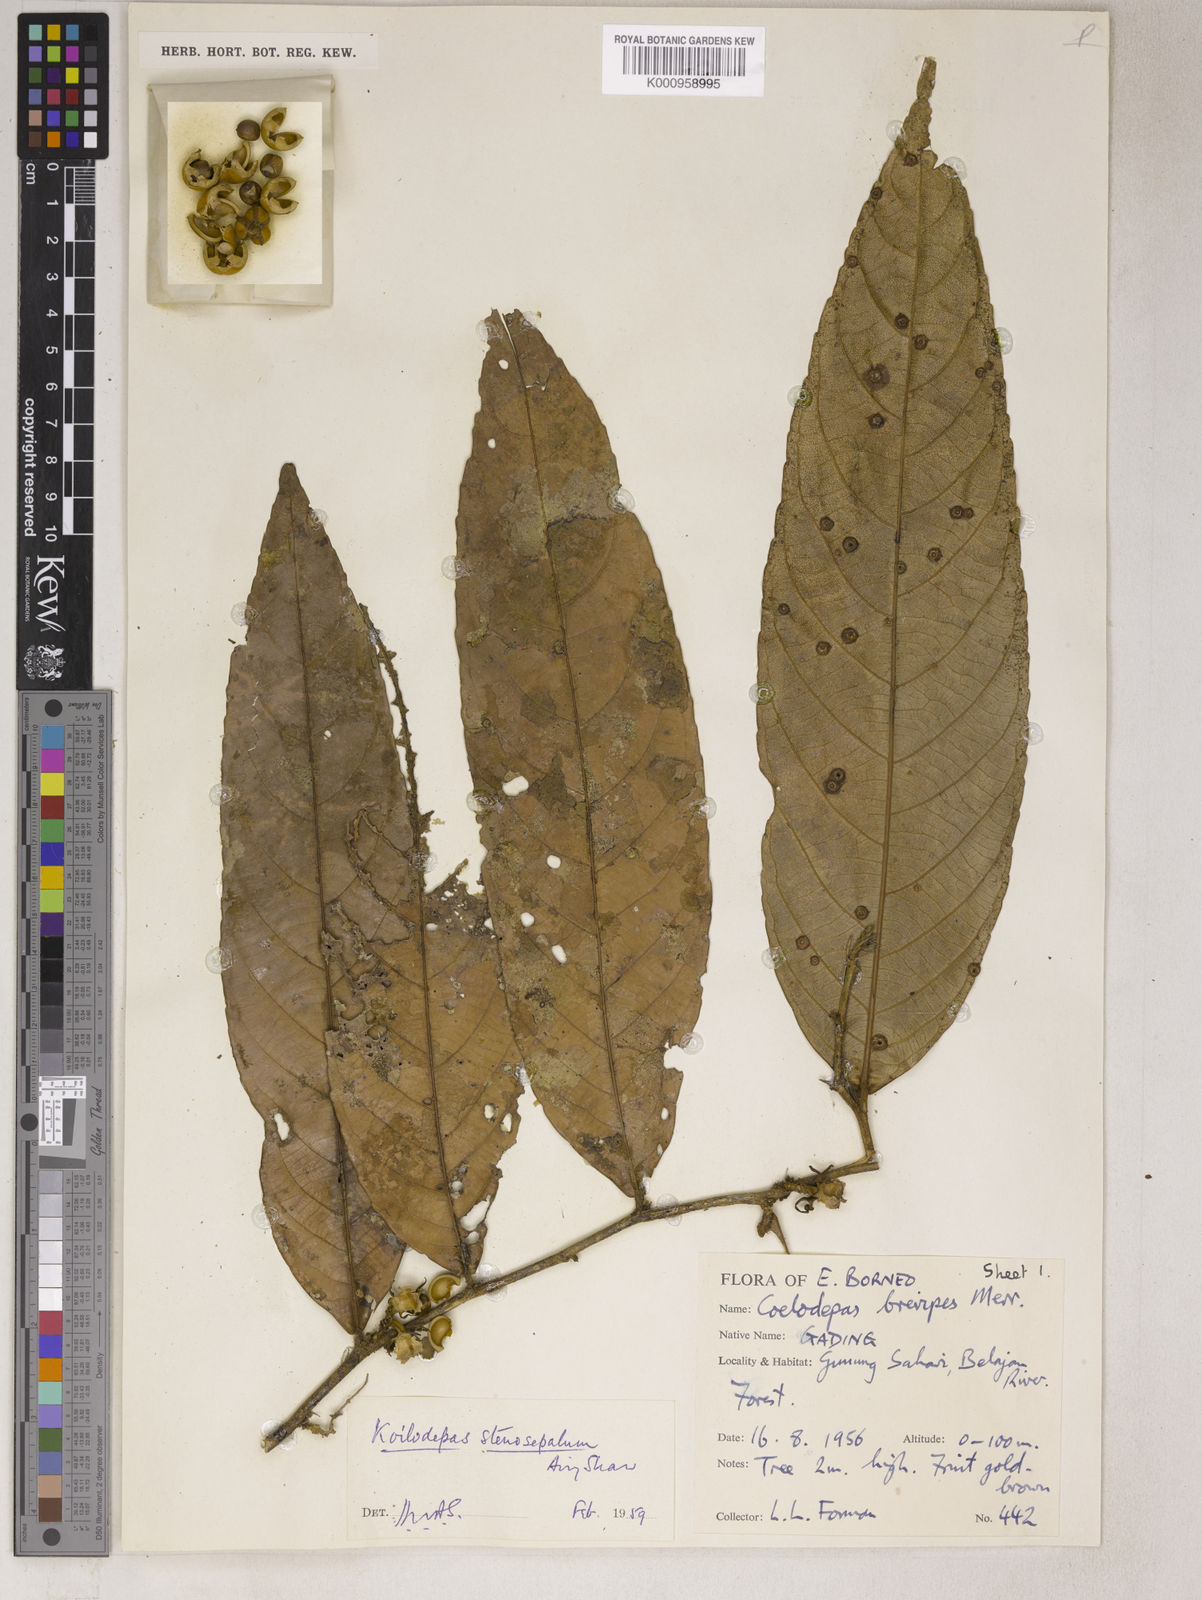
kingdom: Plantae
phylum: Tracheophyta
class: Magnoliopsida
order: Malpighiales
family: Euphorbiaceae
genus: Koilodepas
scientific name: Koilodepas brevipes
